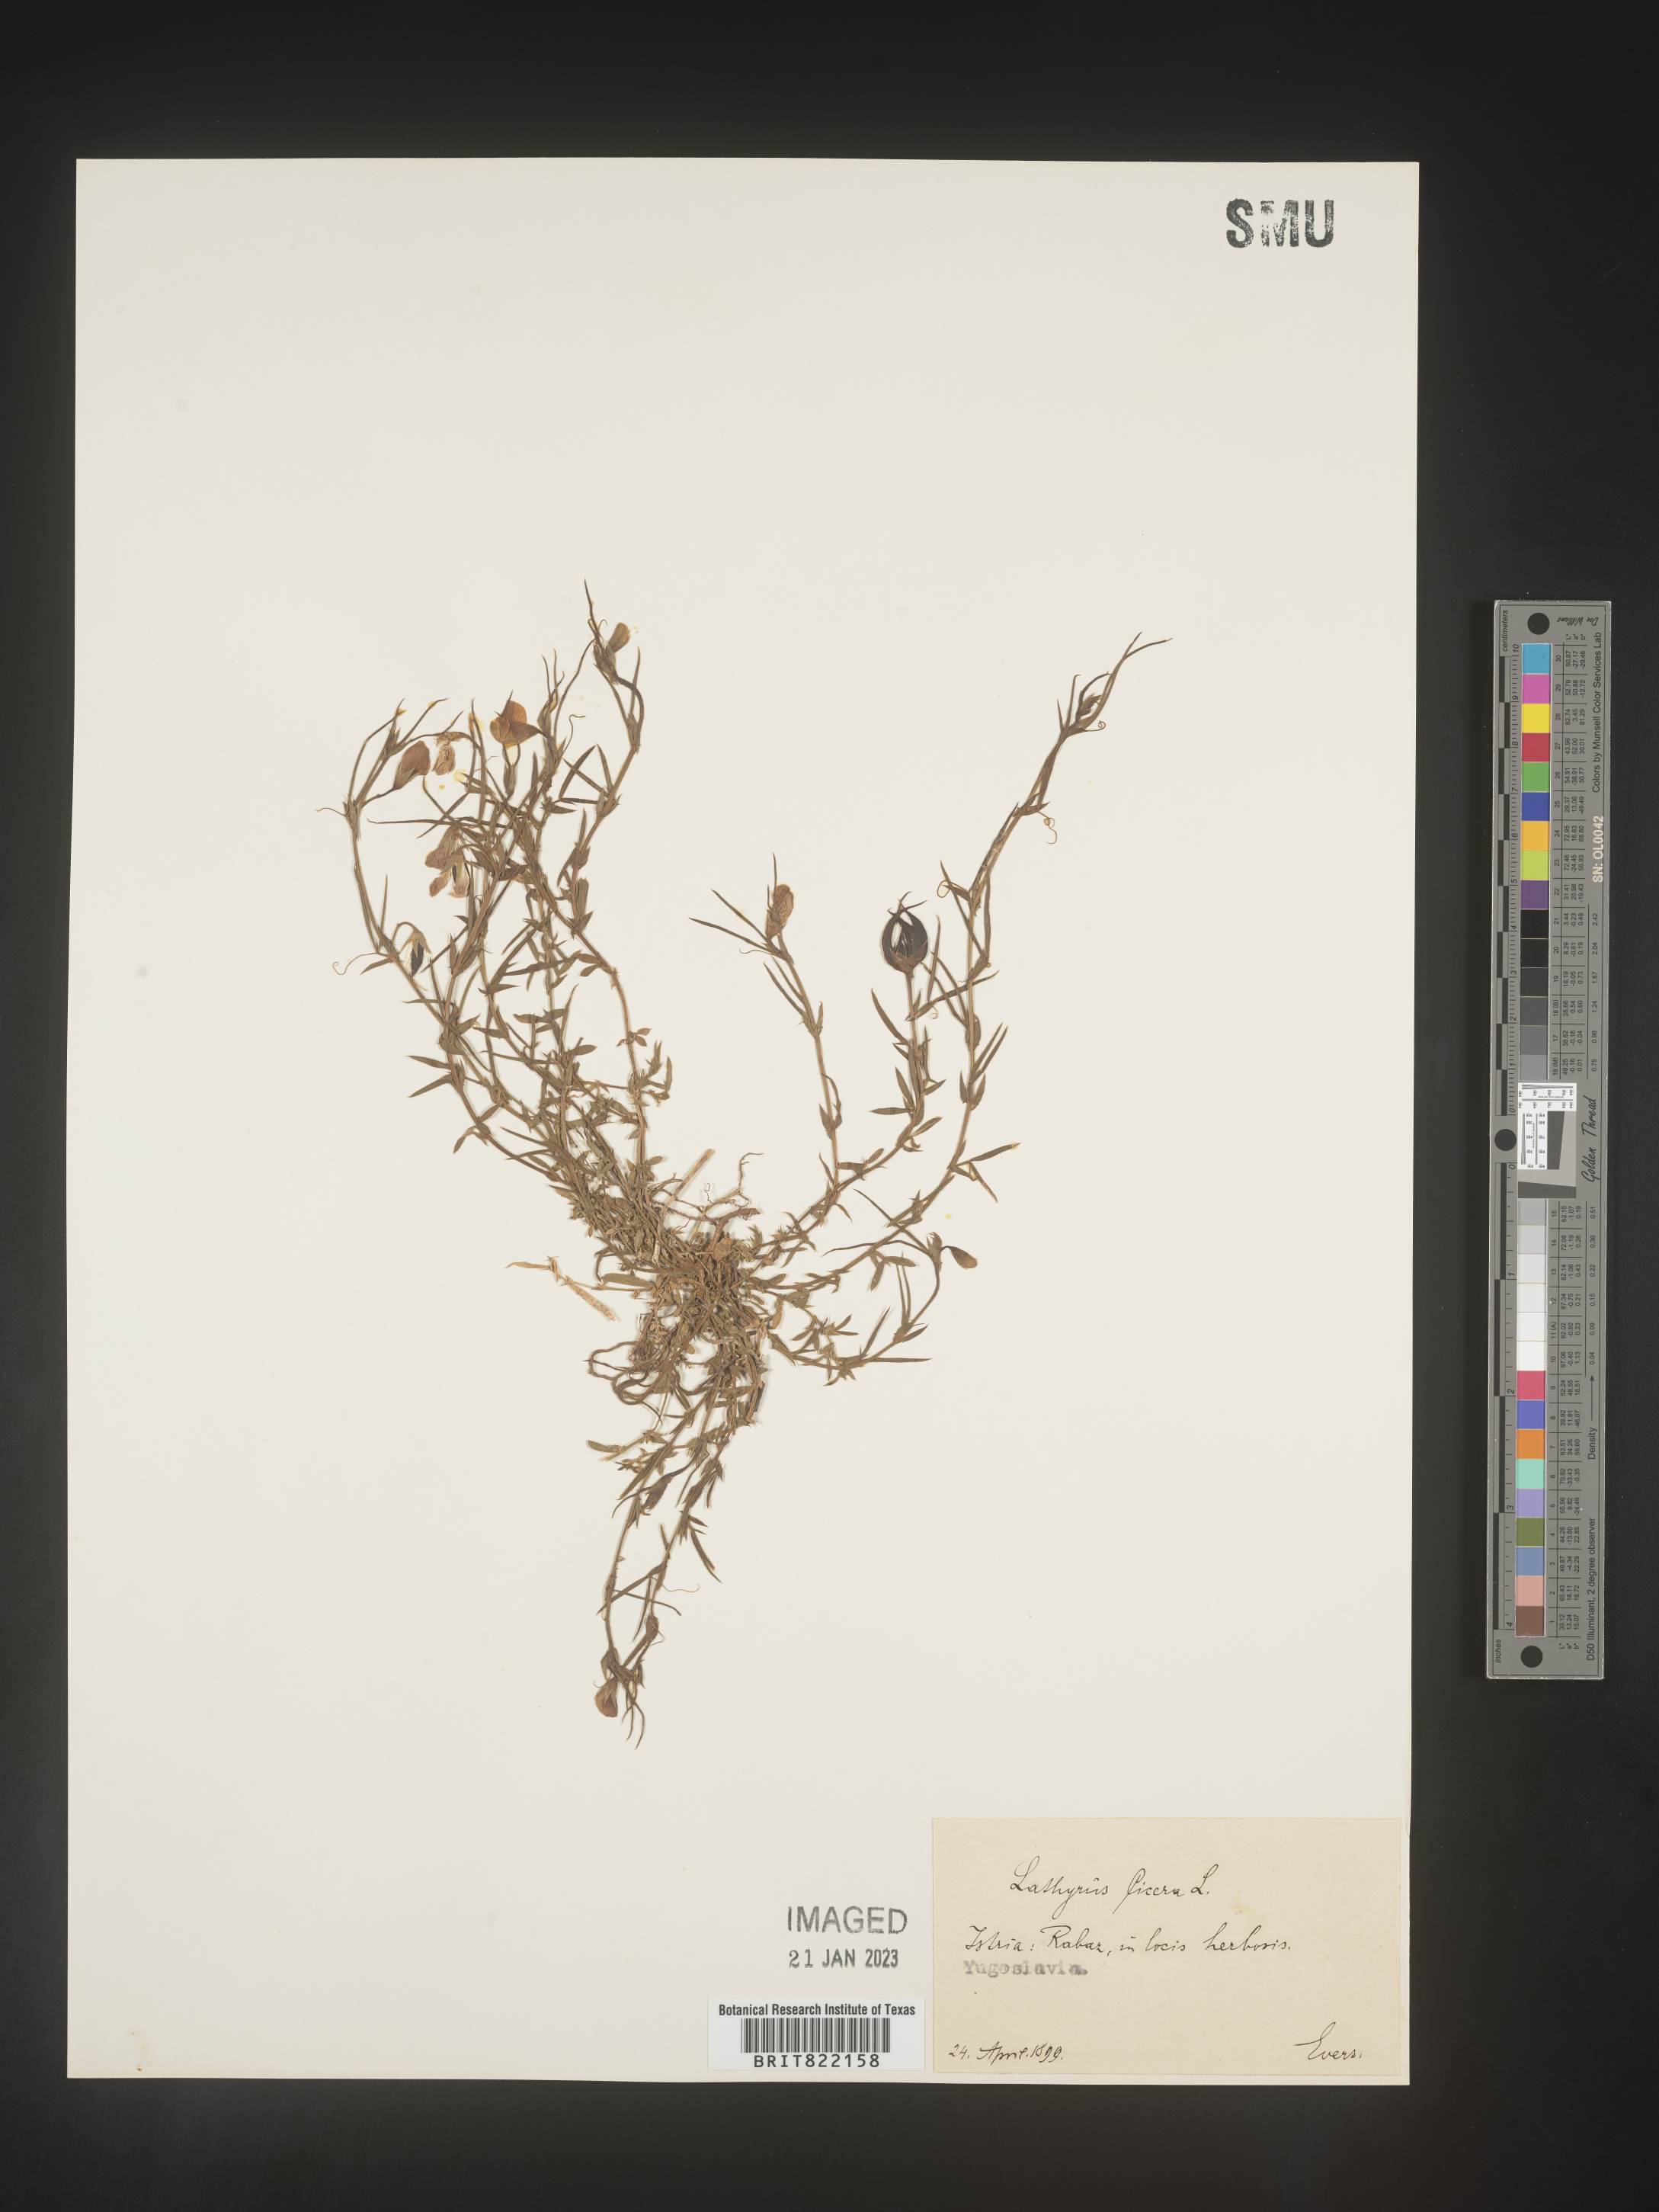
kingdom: Plantae
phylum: Tracheophyta
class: Magnoliopsida
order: Fabales
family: Fabaceae
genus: Lathyrus
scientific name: Lathyrus
